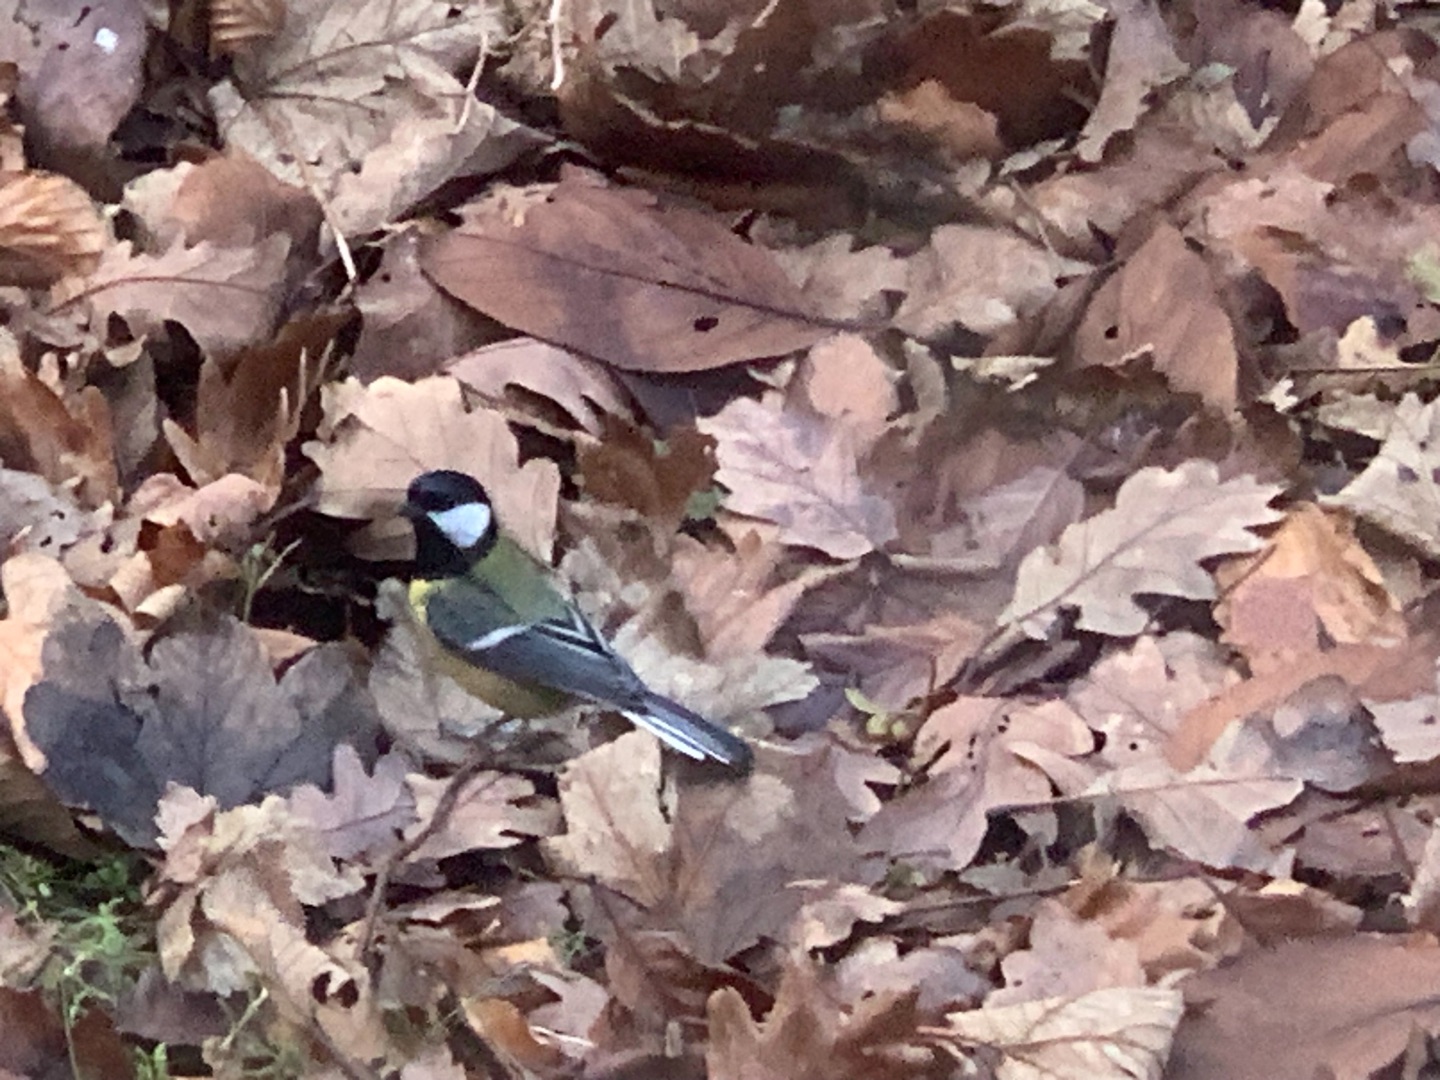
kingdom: Animalia
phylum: Chordata
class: Aves
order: Passeriformes
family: Paridae
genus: Parus
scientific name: Parus major
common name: Musvit
